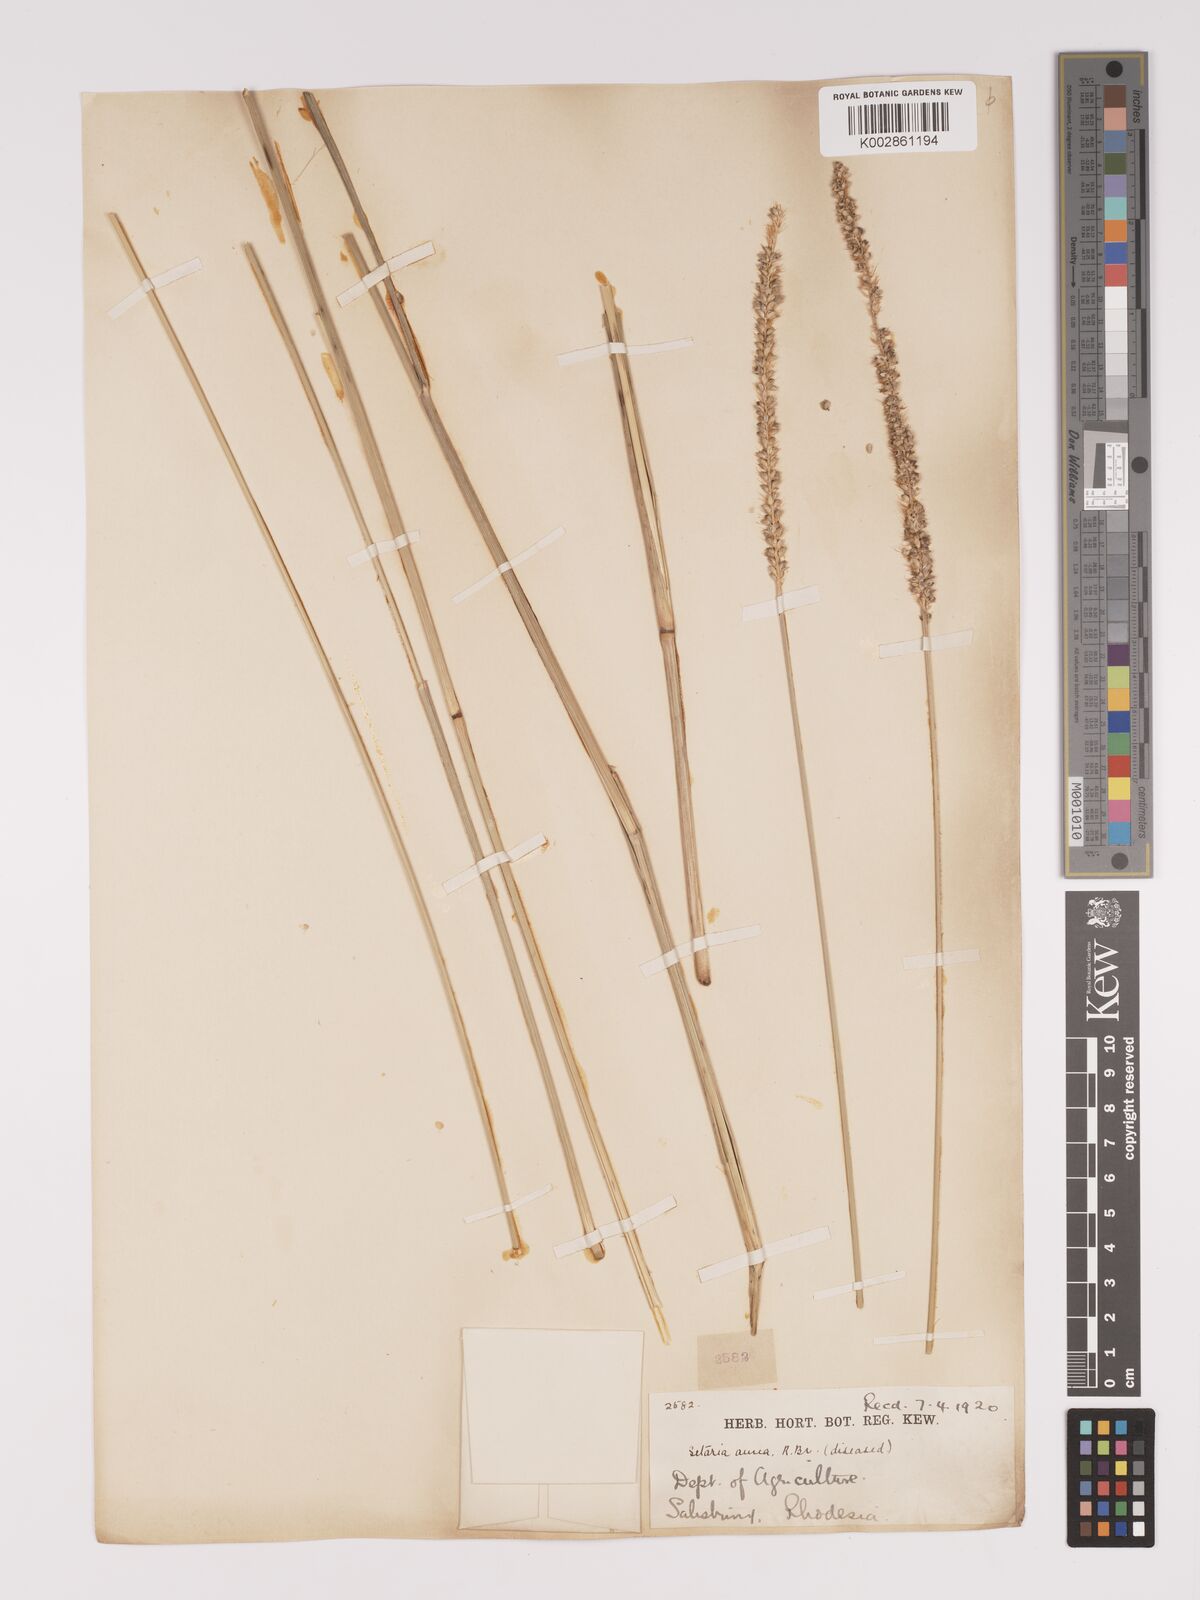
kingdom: Plantae
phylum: Tracheophyta
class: Liliopsida
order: Poales
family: Poaceae
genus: Setaria
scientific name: Setaria sphacelata
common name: African bristlegrass
